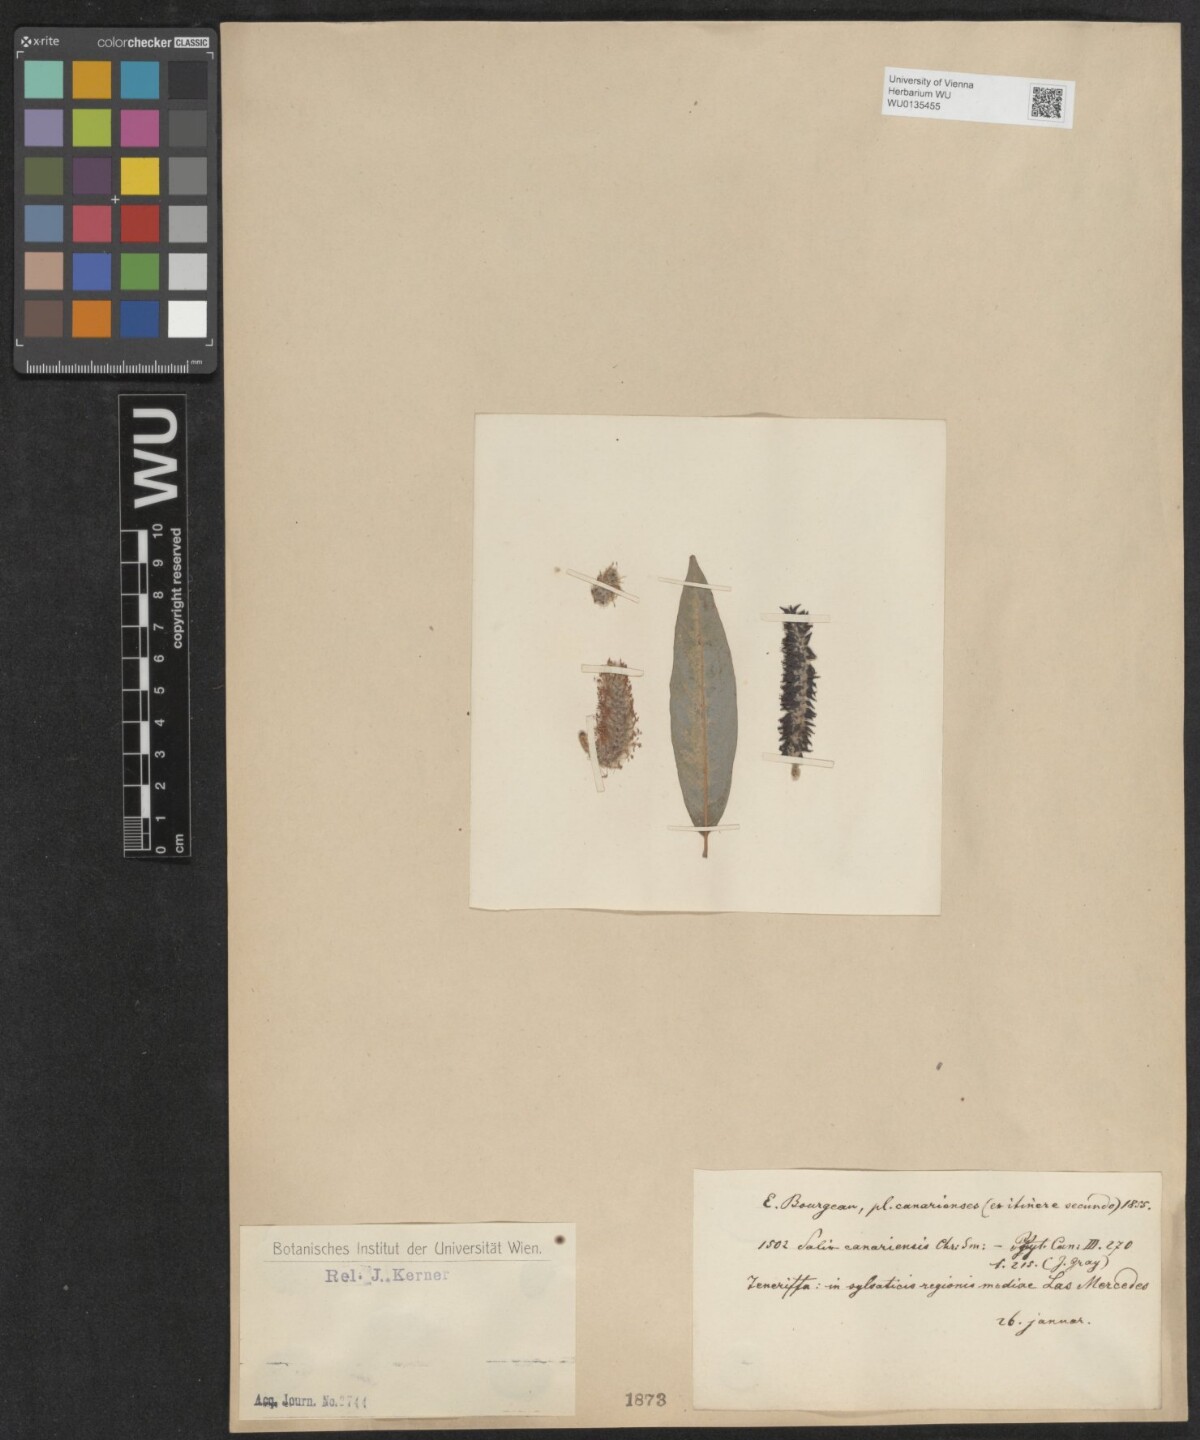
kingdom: Plantae
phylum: Tracheophyta
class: Magnoliopsida
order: Malpighiales
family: Salicaceae
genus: Salix
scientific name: Salix canariensis
